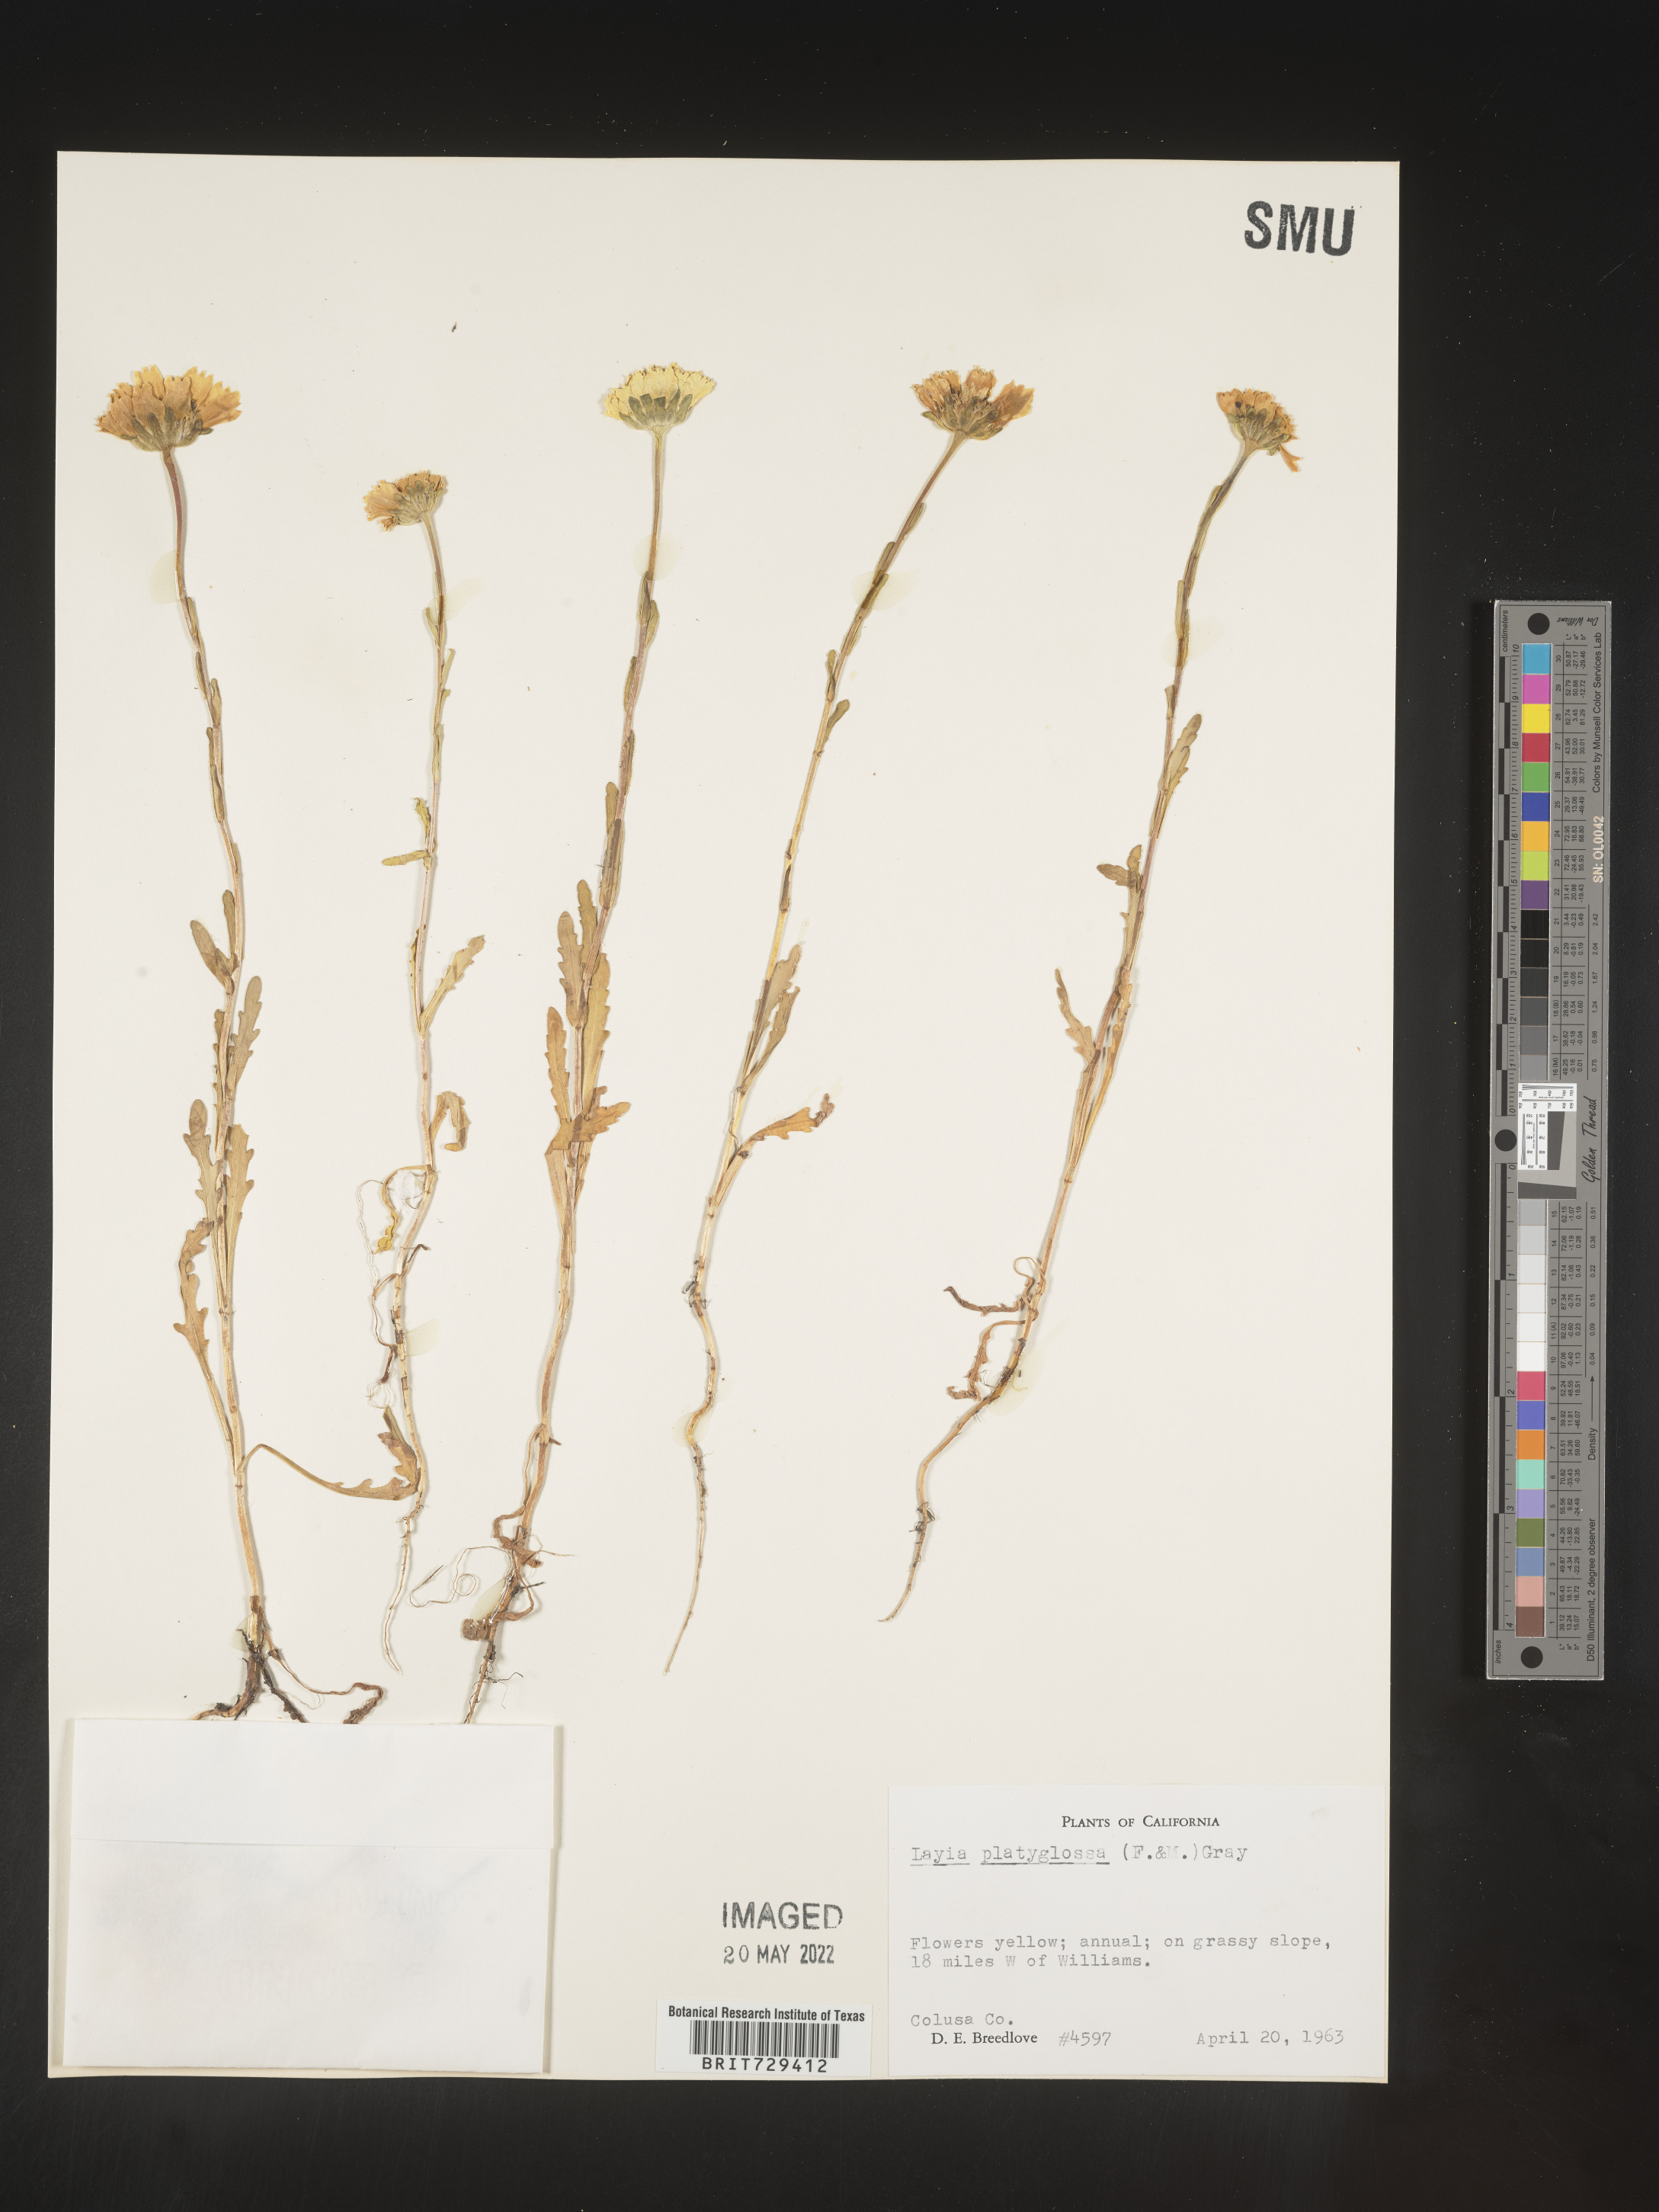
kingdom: Plantae
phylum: Tracheophyta
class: Magnoliopsida
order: Asterales
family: Asteraceae
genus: Layia
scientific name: Layia
